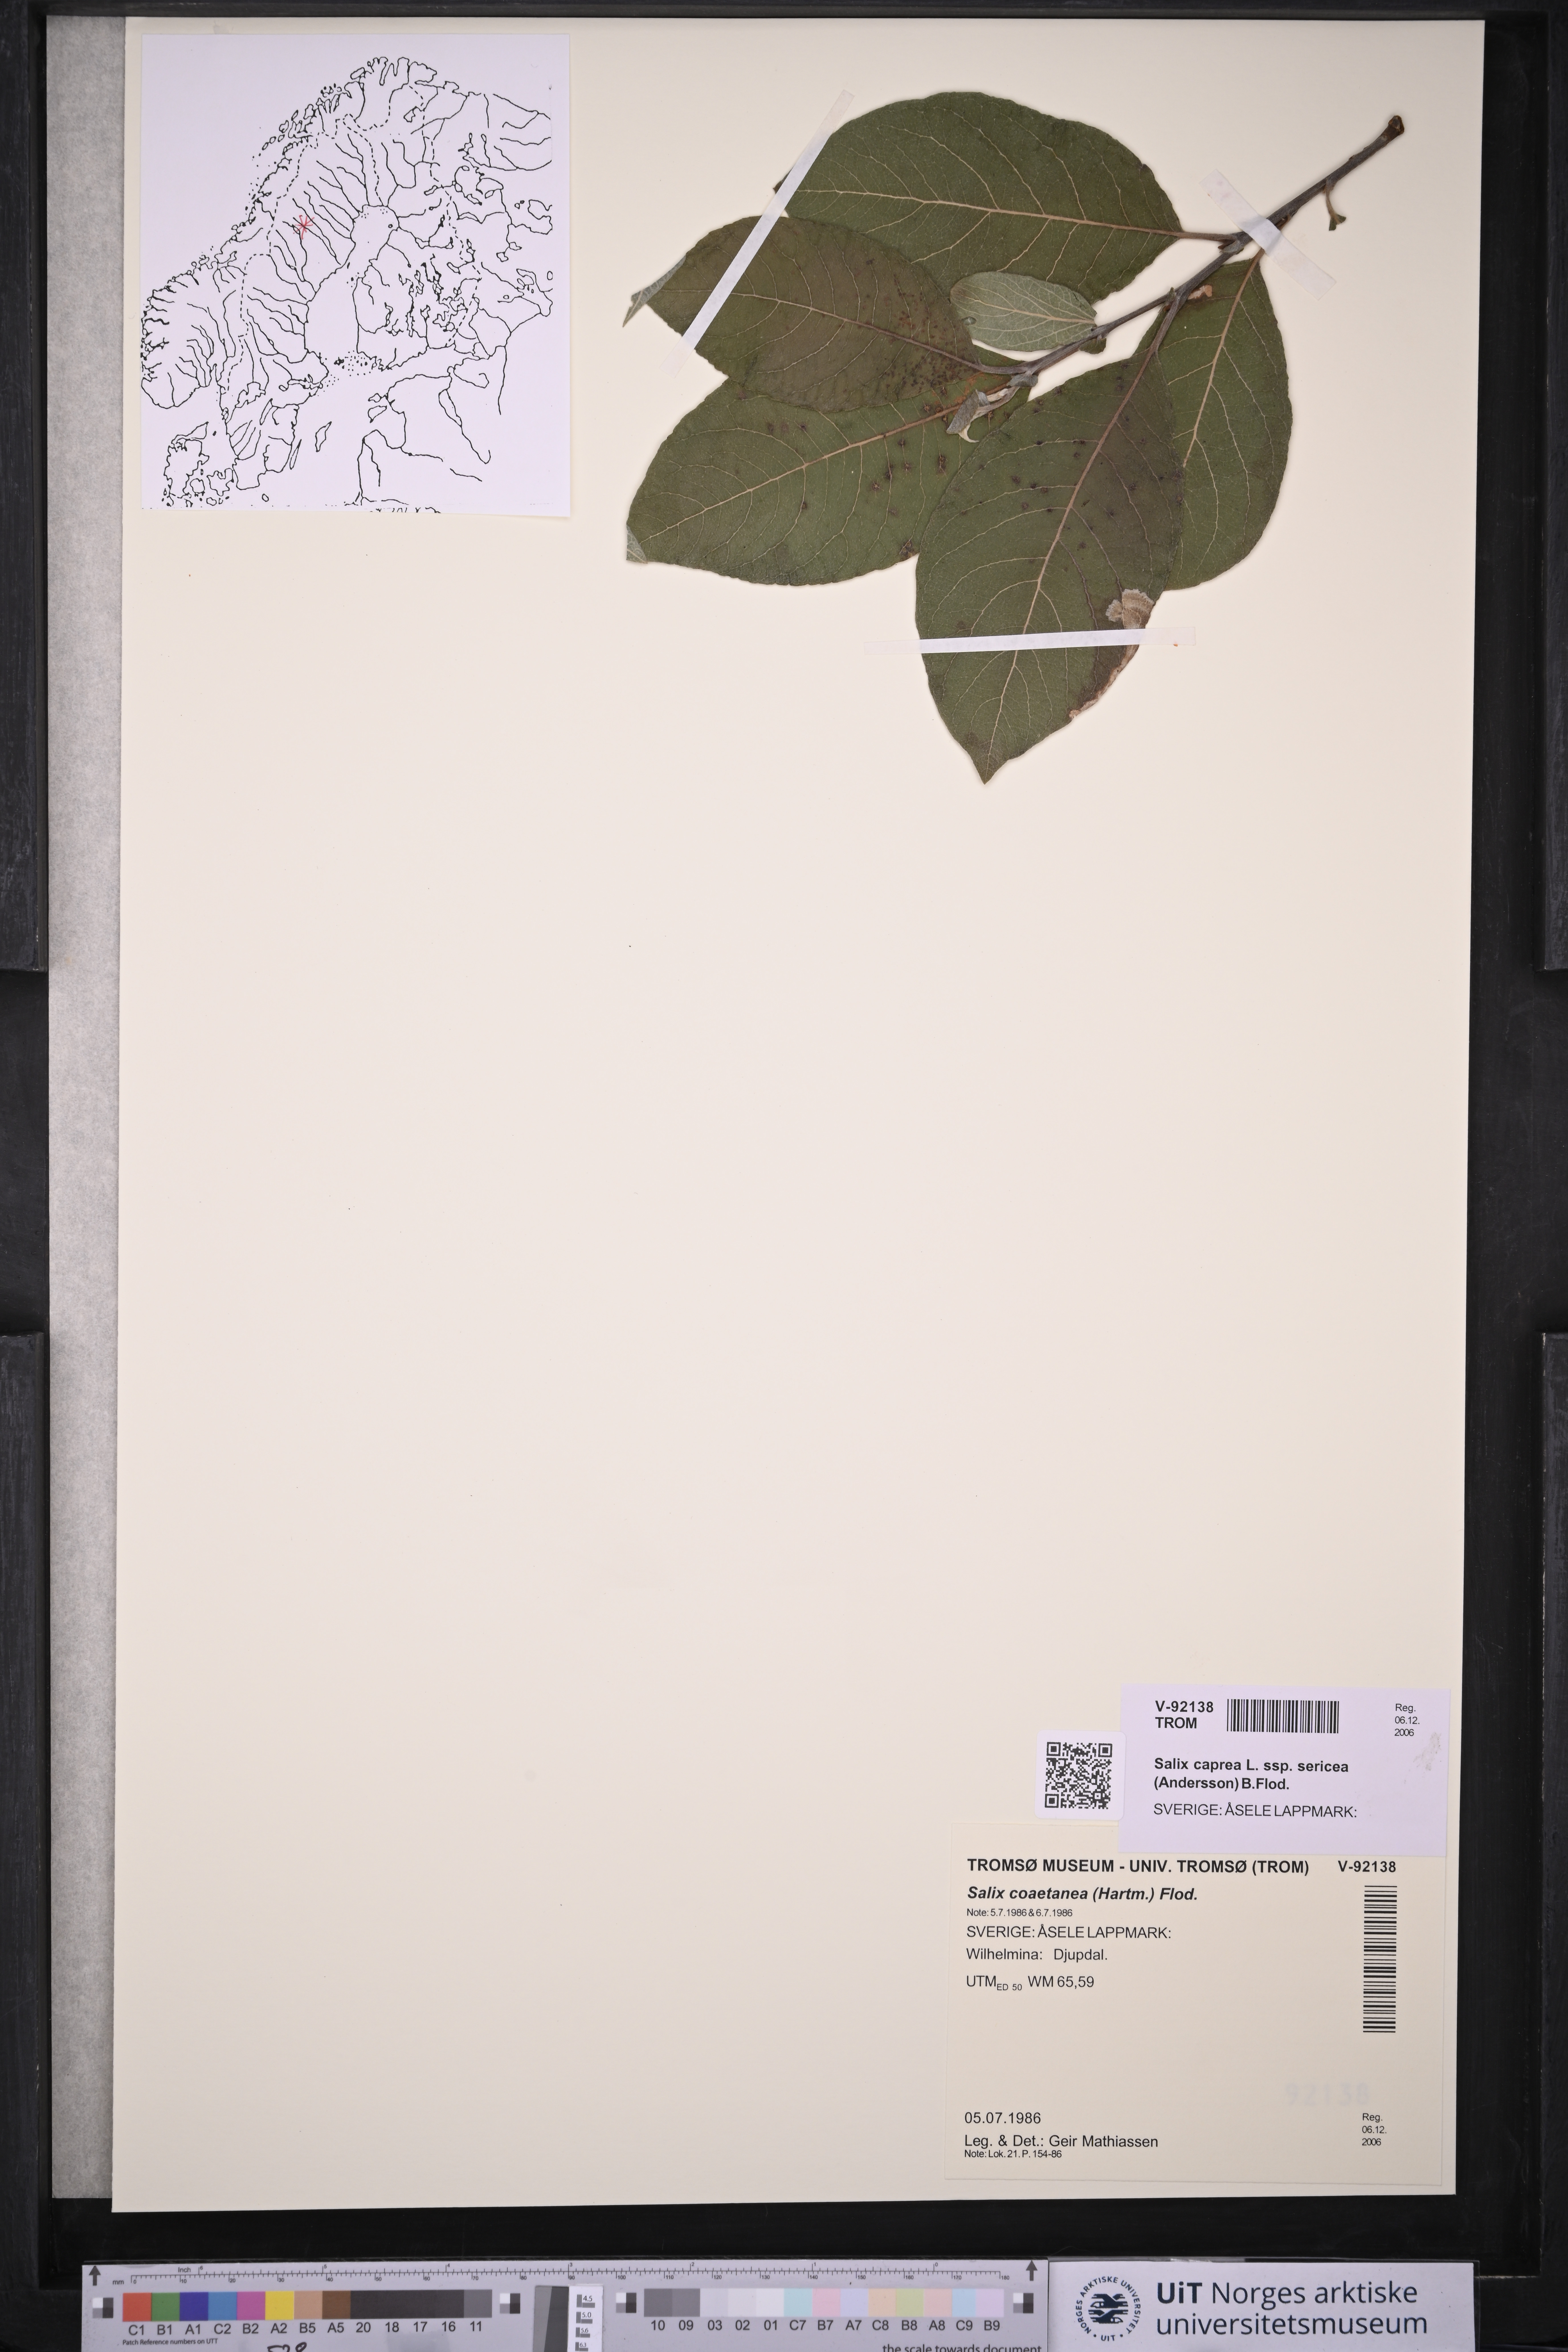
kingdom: Plantae
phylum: Tracheophyta
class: Magnoliopsida
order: Malpighiales
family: Salicaceae
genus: Salix
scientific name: Salix caprea
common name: Goat willow
